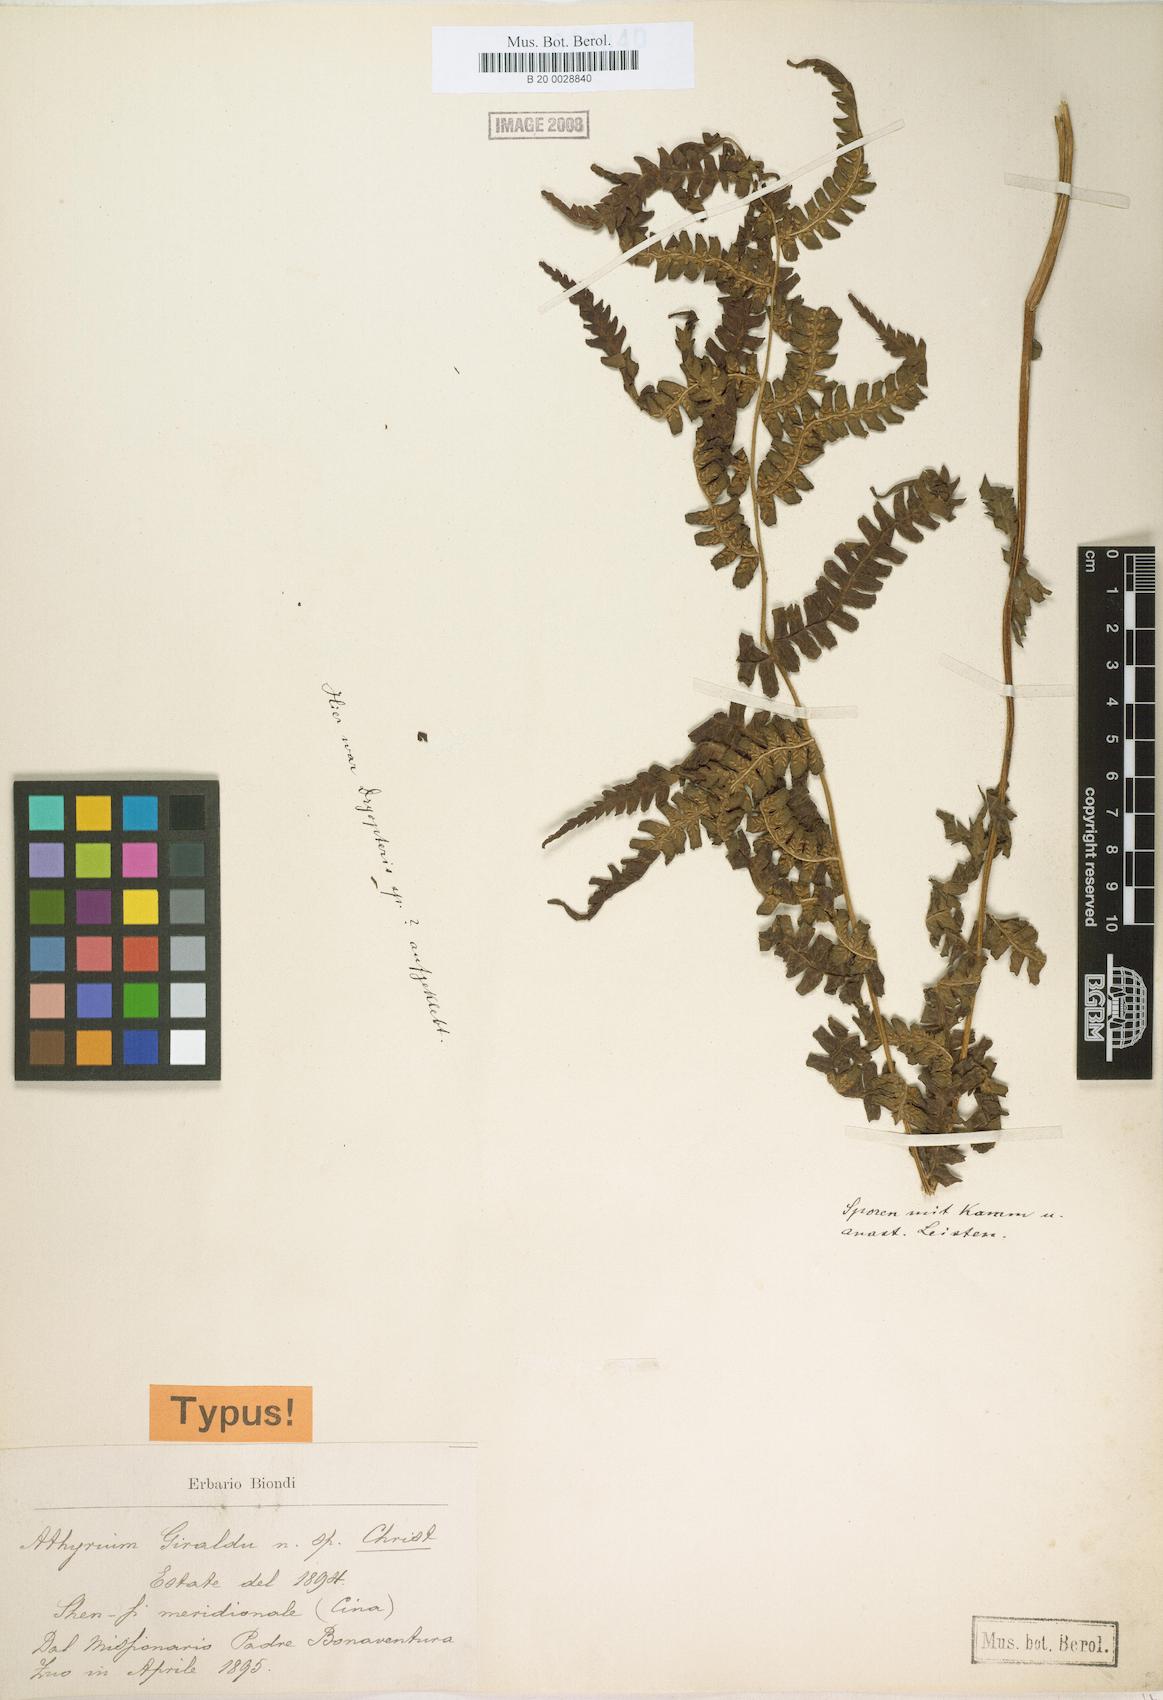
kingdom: Plantae
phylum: Tracheophyta
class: Polypodiopsida
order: Polypodiales
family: Athyriaceae
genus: Deparia
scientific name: Deparia giraldii
